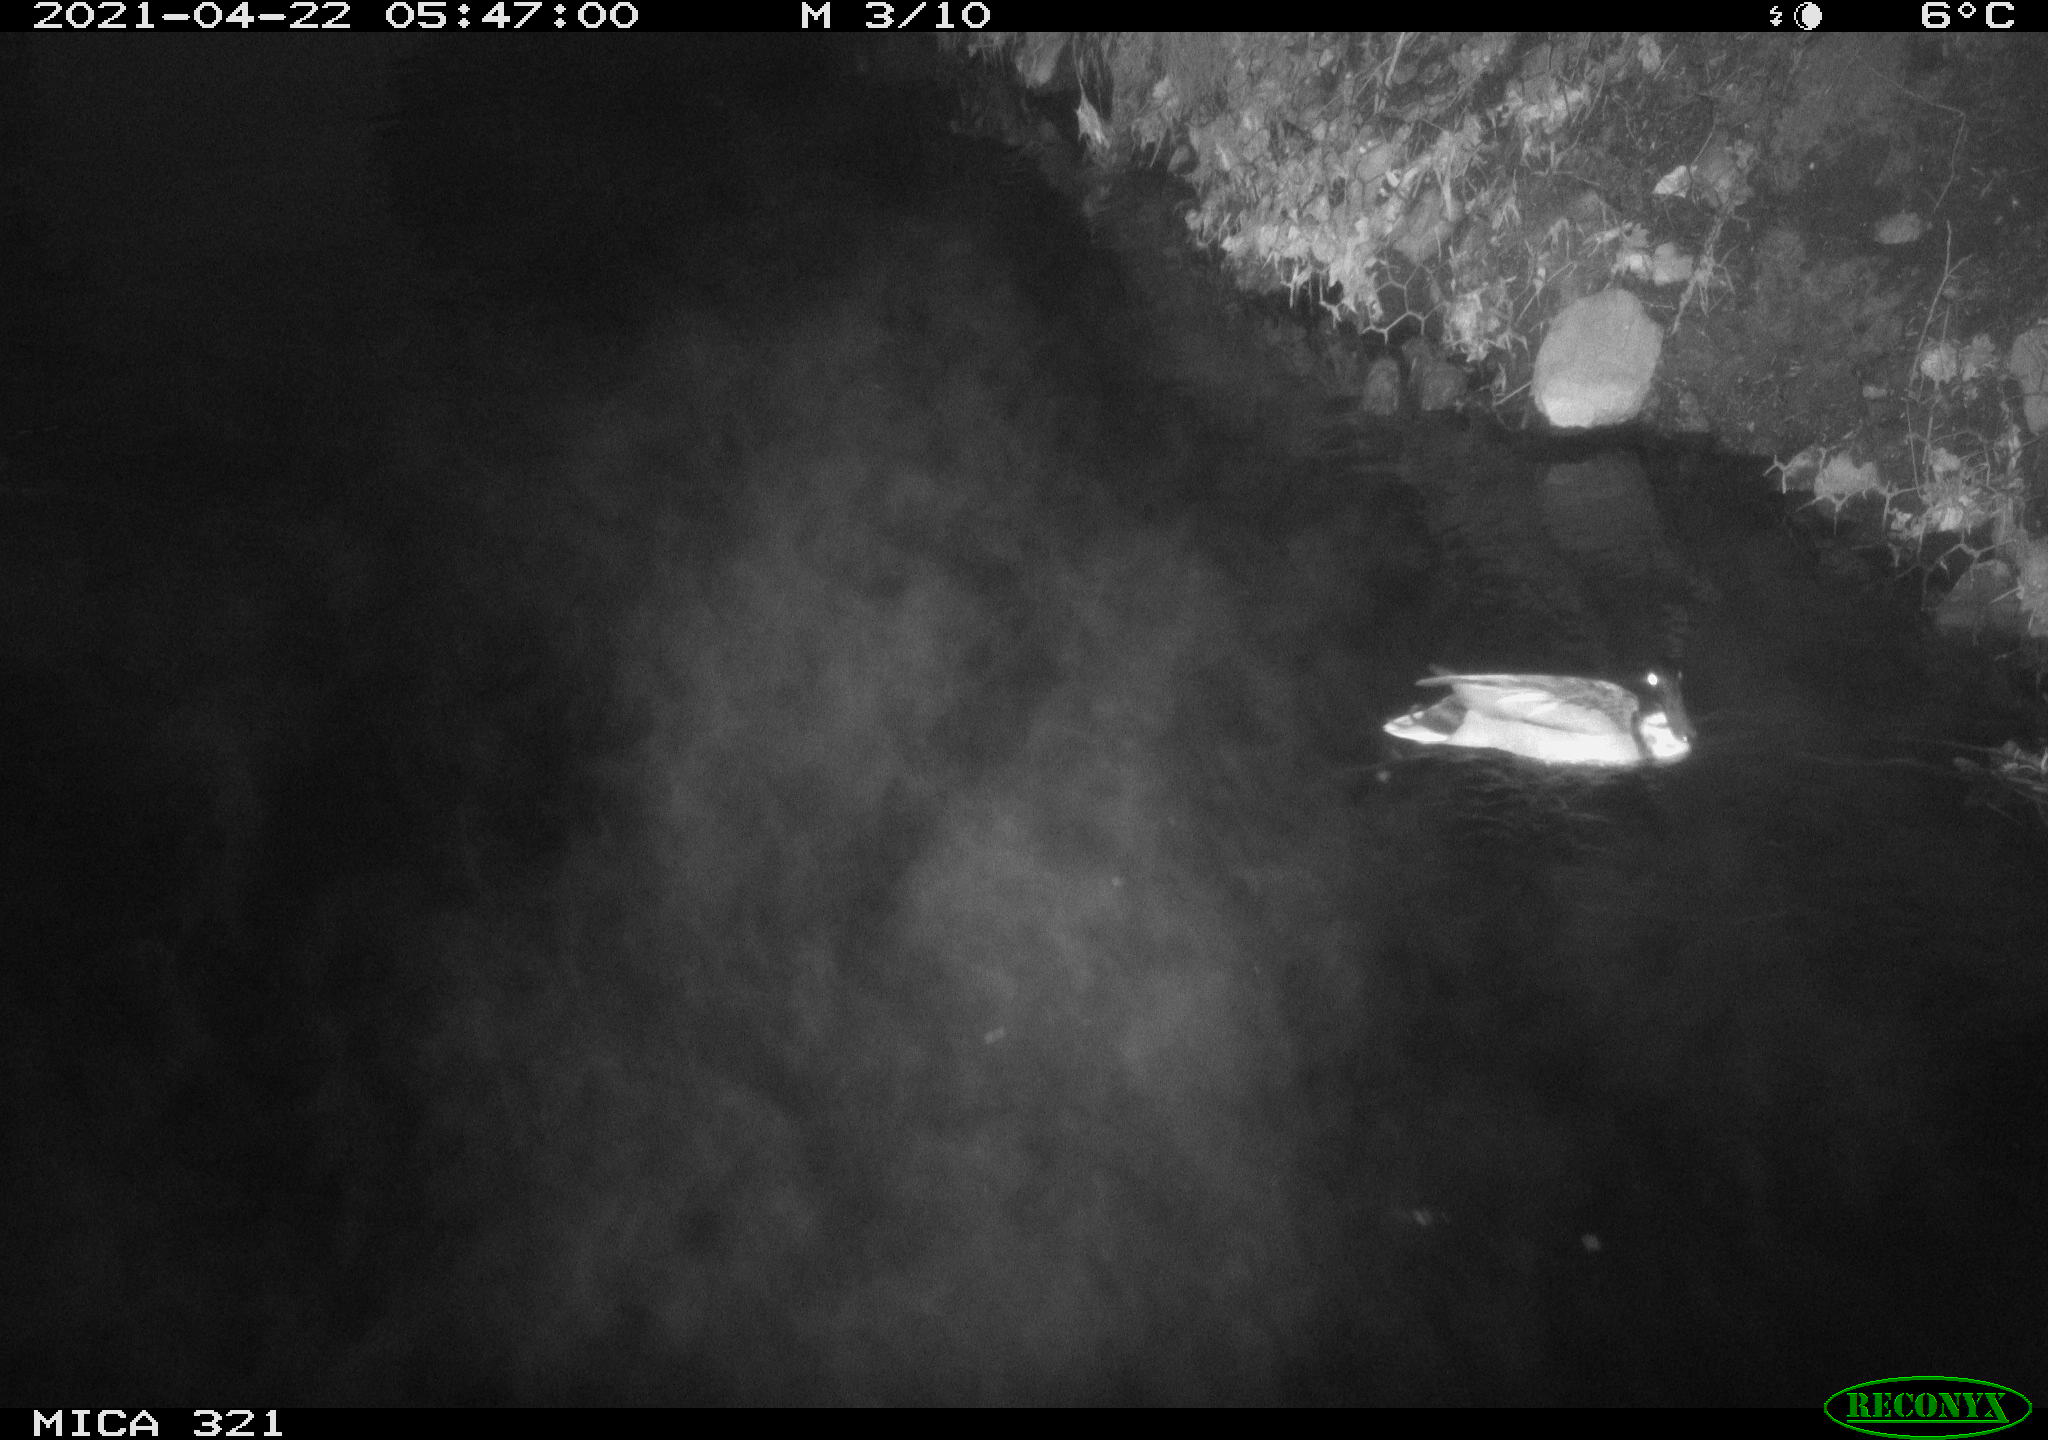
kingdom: Animalia
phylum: Chordata
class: Aves
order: Anseriformes
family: Anatidae
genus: Anas
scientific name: Anas platyrhynchos
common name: Mallard
